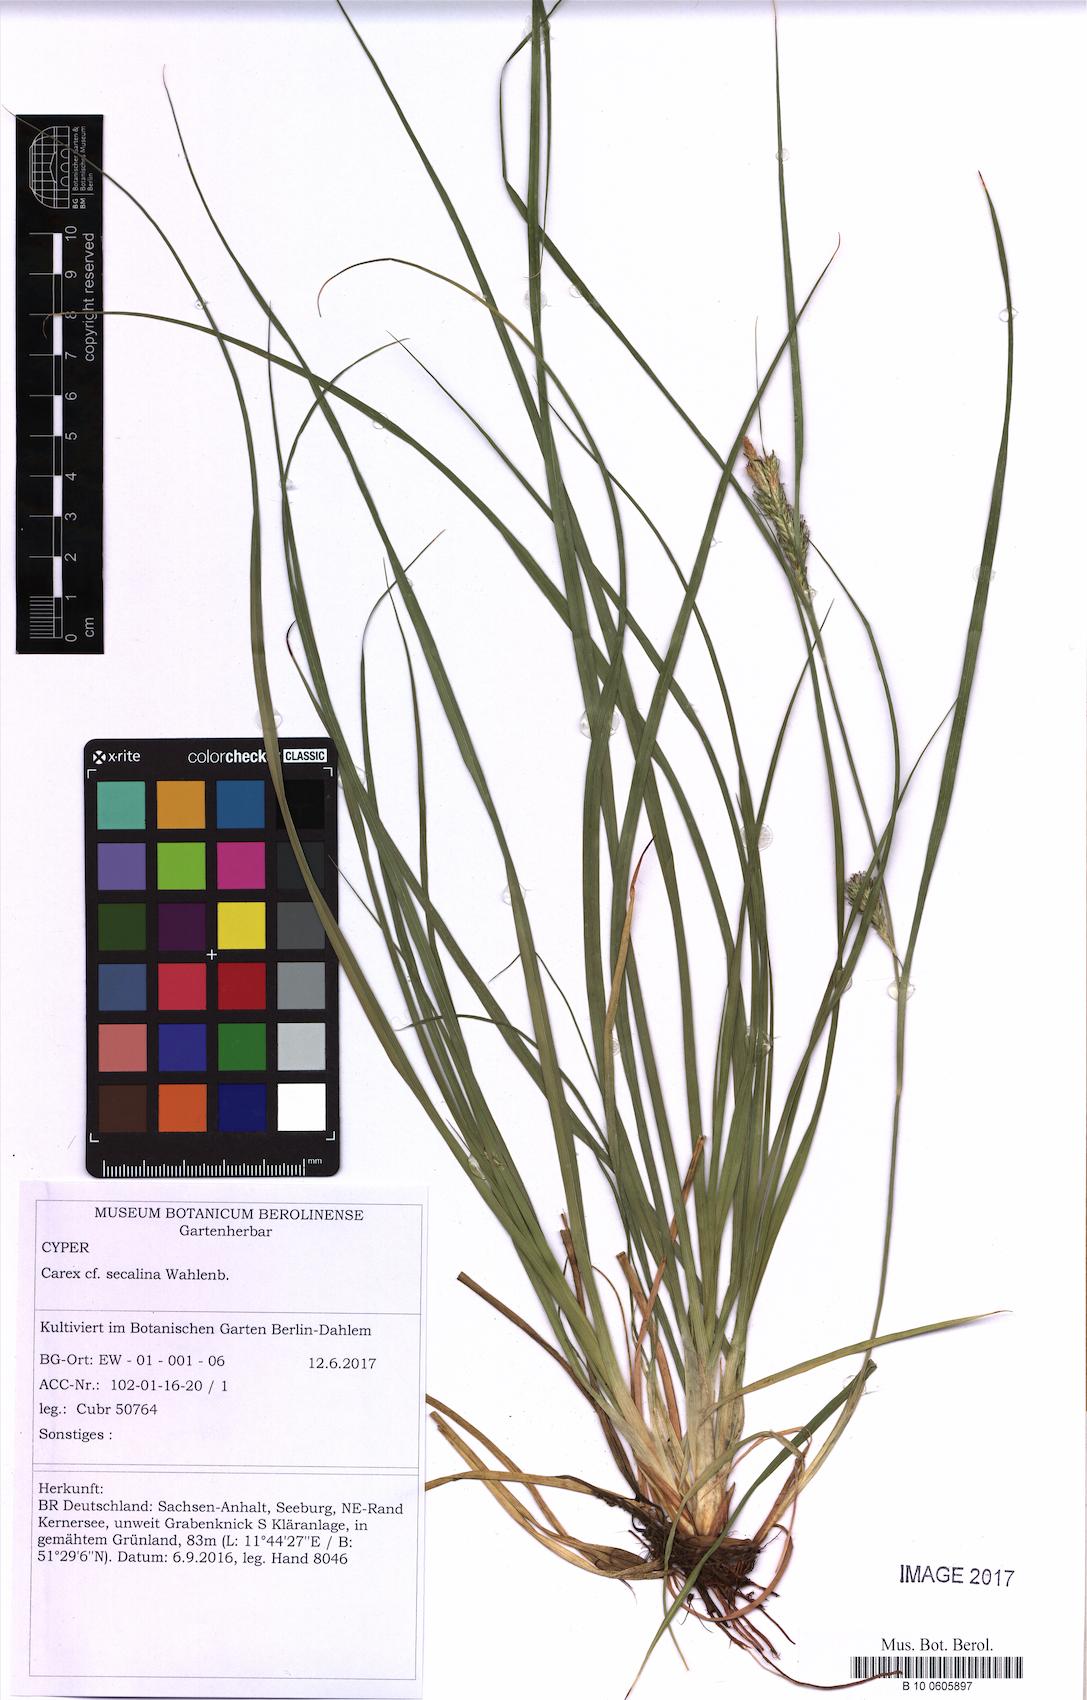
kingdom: Plantae
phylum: Tracheophyta
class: Liliopsida
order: Poales
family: Cyperaceae
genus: Carex
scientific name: Carex secalina
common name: Rye sedge
